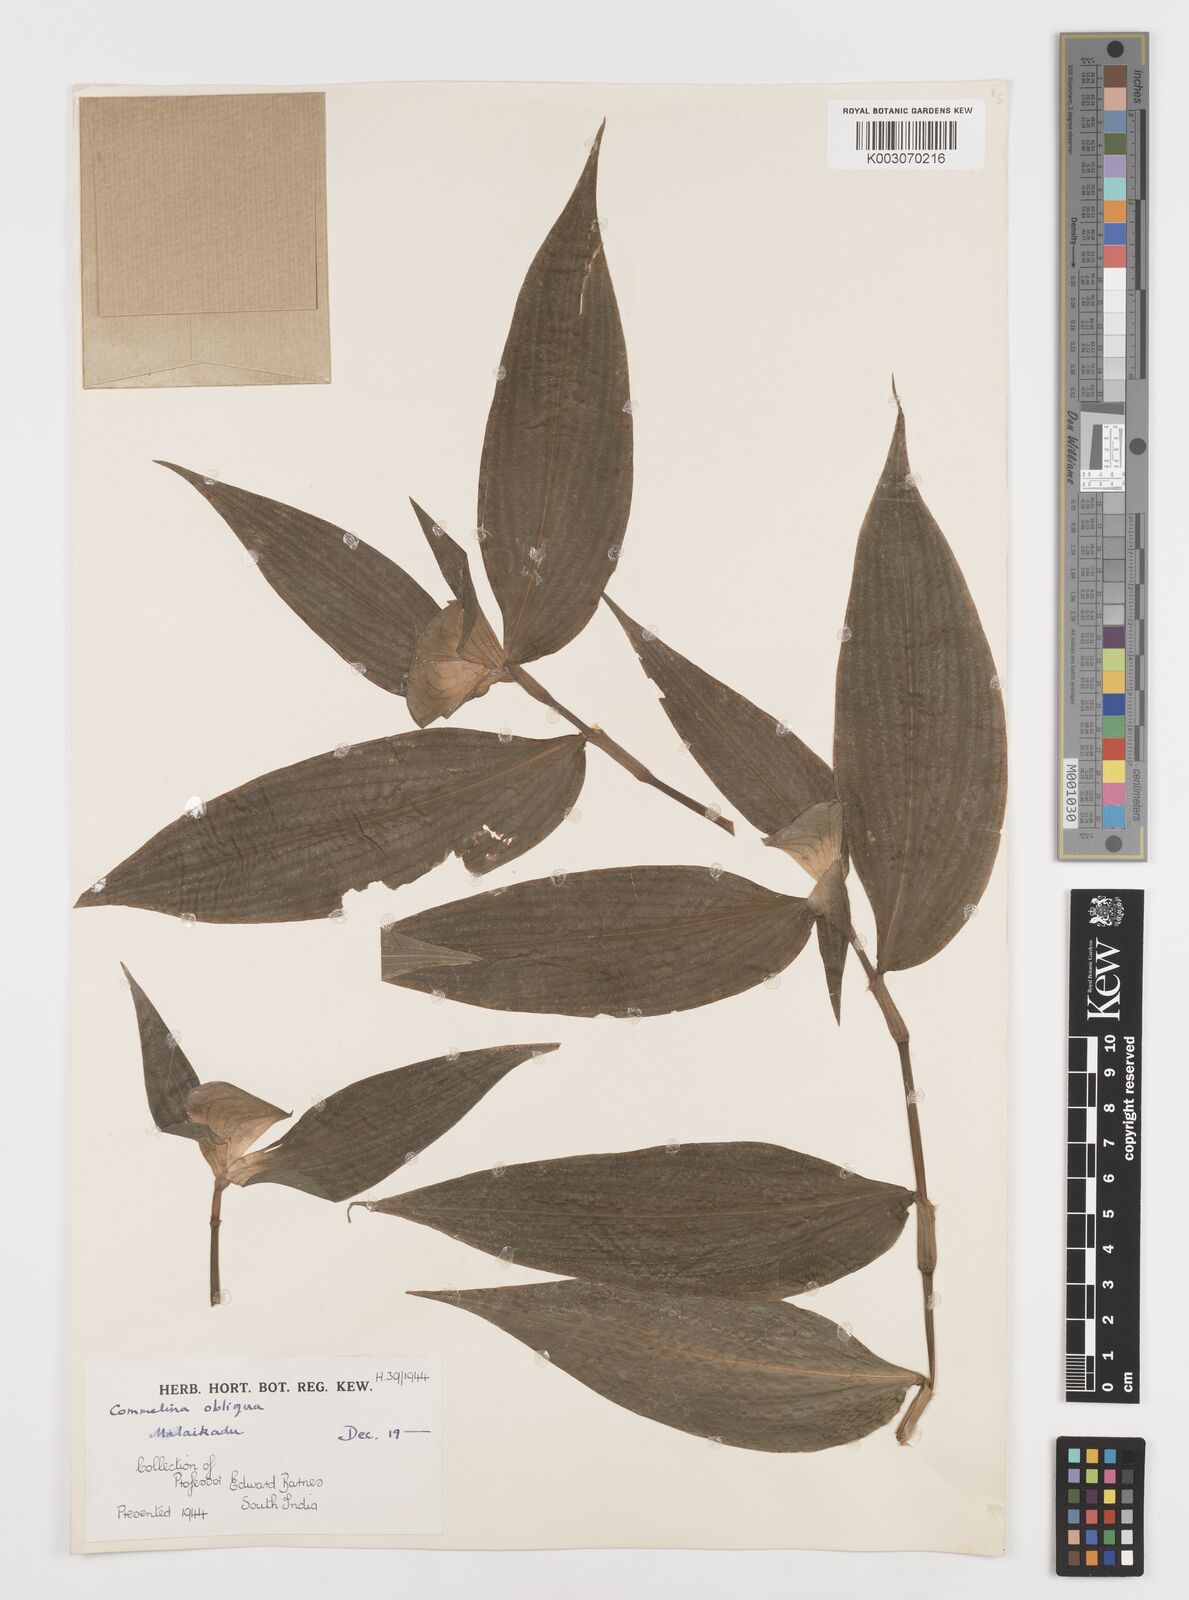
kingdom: Plantae
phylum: Tracheophyta
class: Liliopsida
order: Commelinales
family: Commelinaceae
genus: Commelina
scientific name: Commelina paludosa
